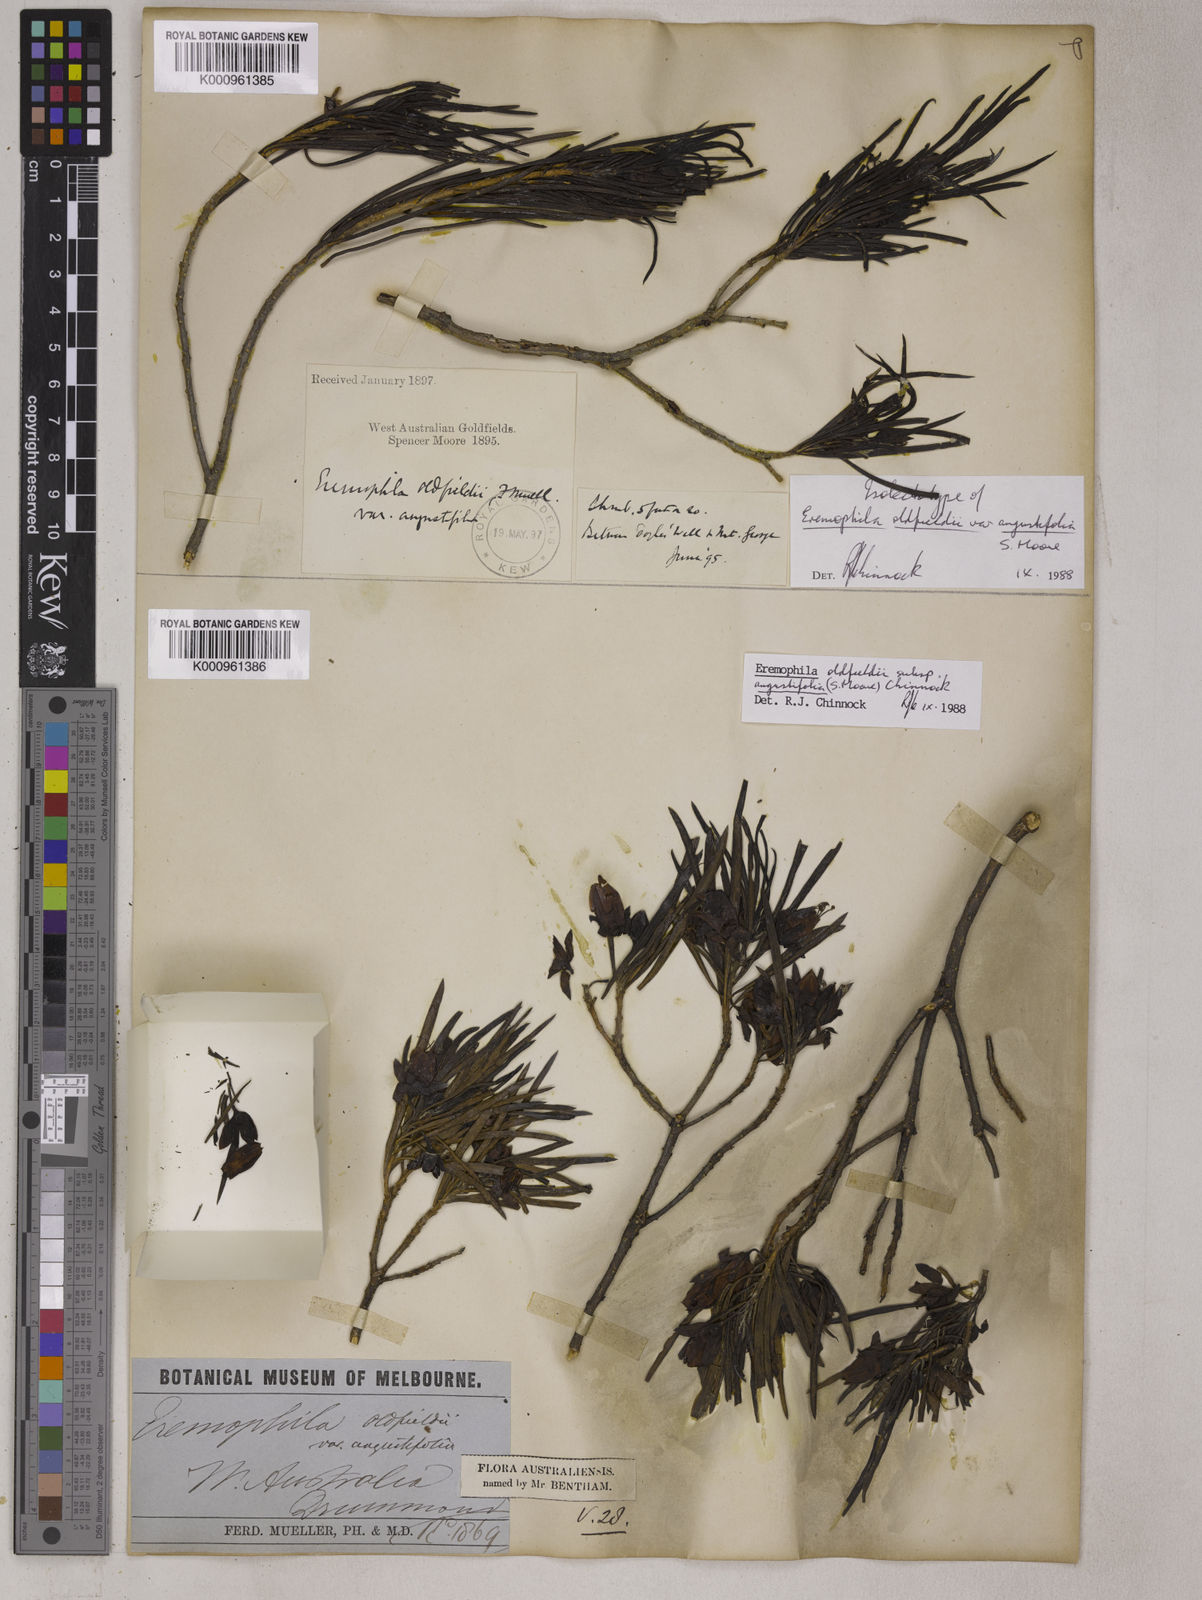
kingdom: Plantae
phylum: Tracheophyta
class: Magnoliopsida
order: Lamiales
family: Scrophulariaceae
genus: Eremophila
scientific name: Eremophila oldfieldii
